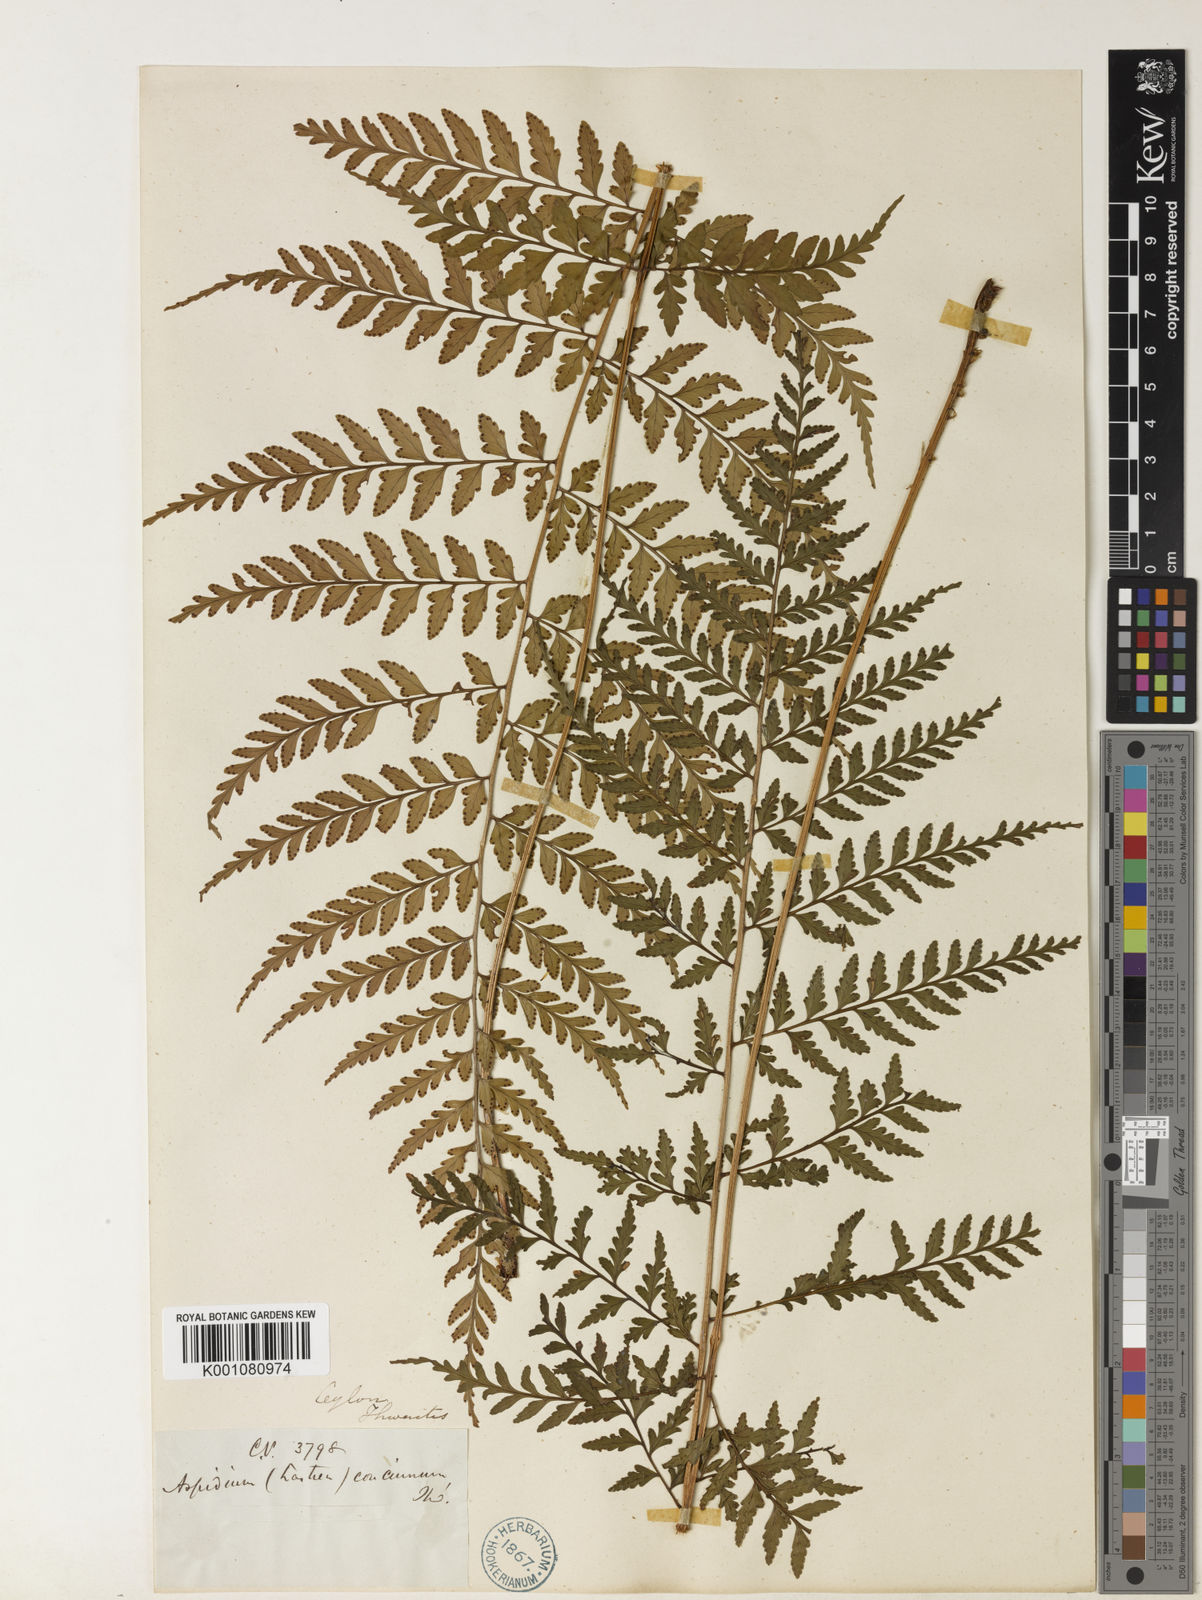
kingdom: Plantae
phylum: Tracheophyta
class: Polypodiopsida
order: Polypodiales
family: Dryopteridaceae
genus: Dryopteris
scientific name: Dryopteris
